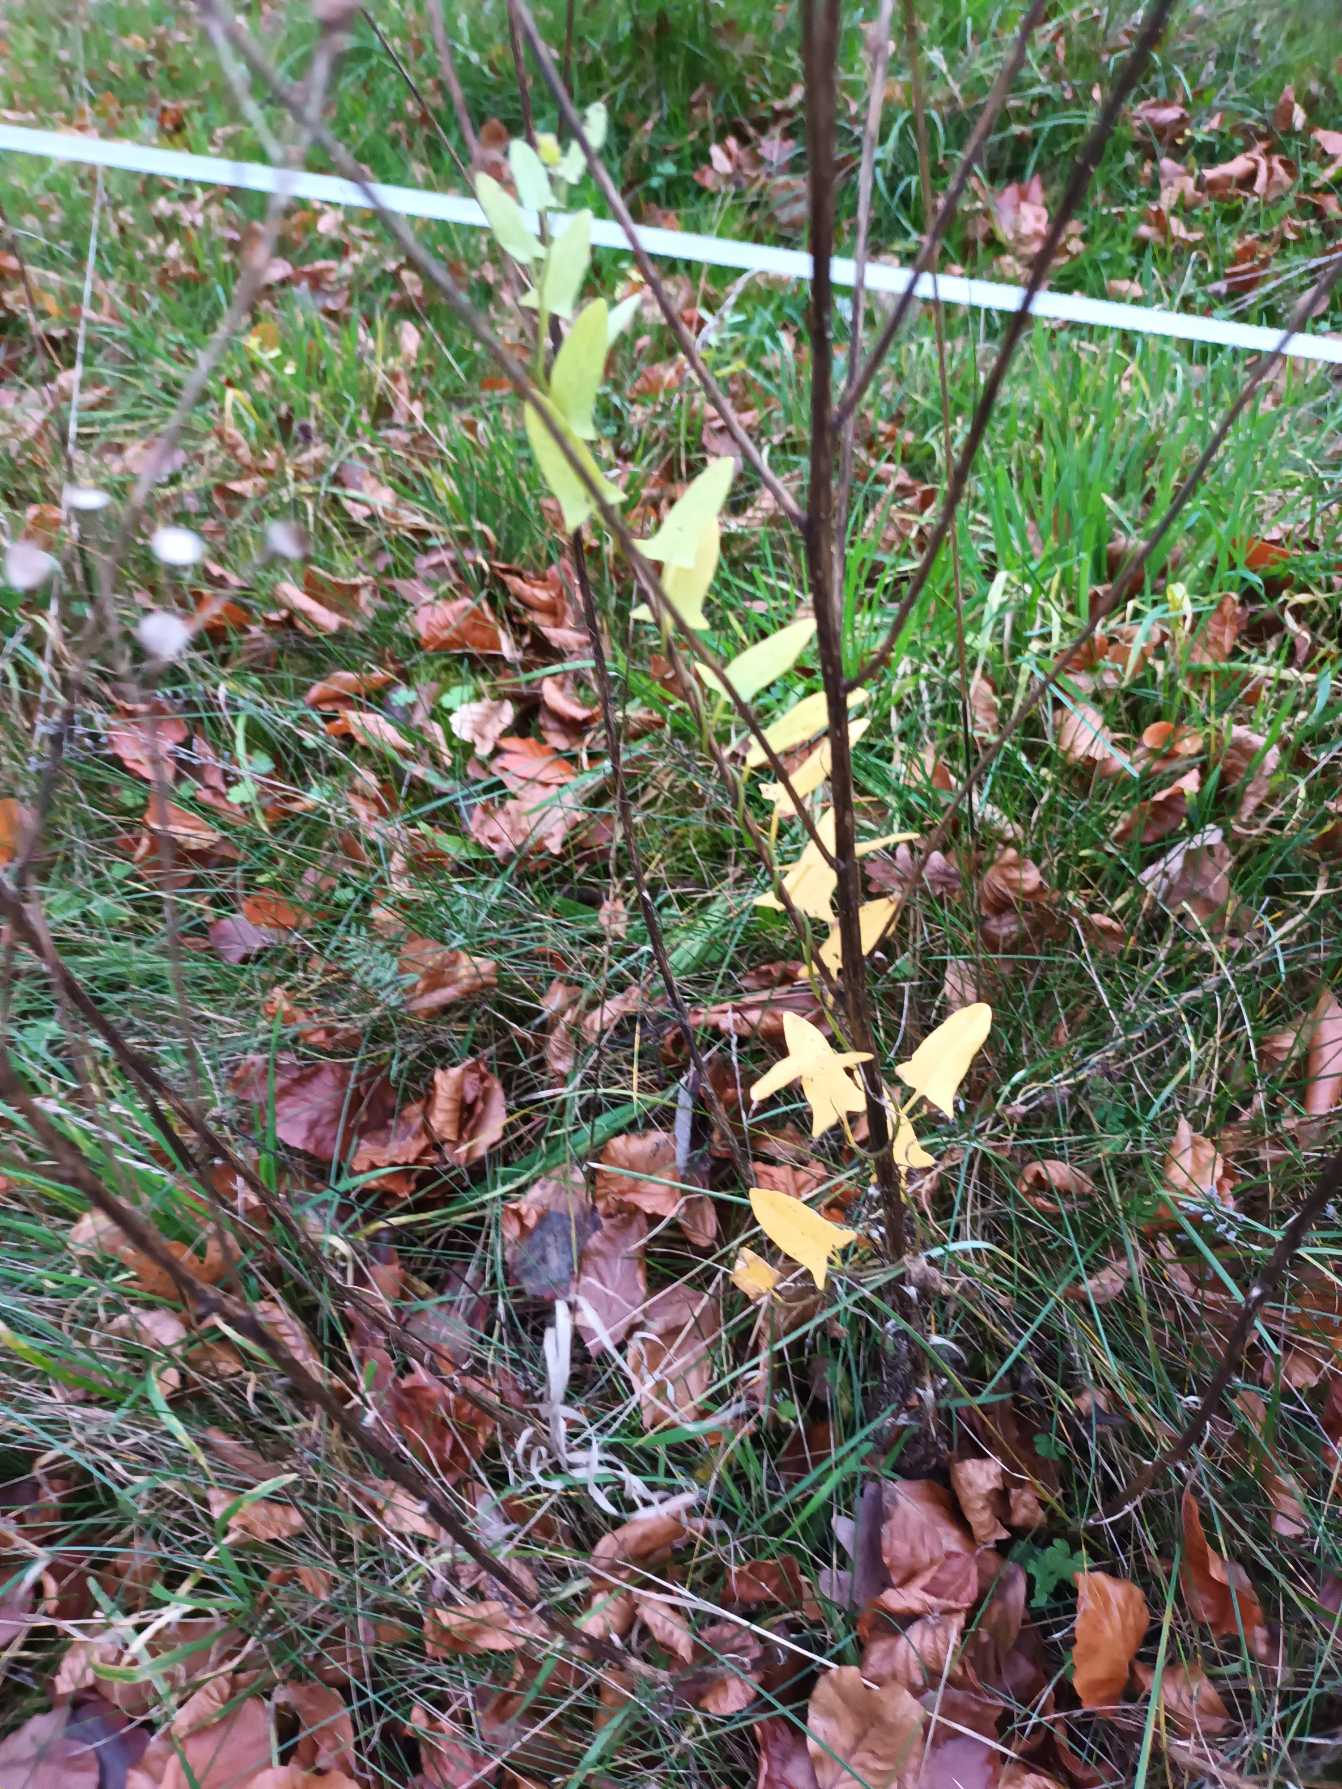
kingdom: Plantae
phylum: Tracheophyta
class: Magnoliopsida
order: Solanales
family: Convolvulaceae
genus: Convolvulus
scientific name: Convolvulus arvensis
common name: Ager-snerle
